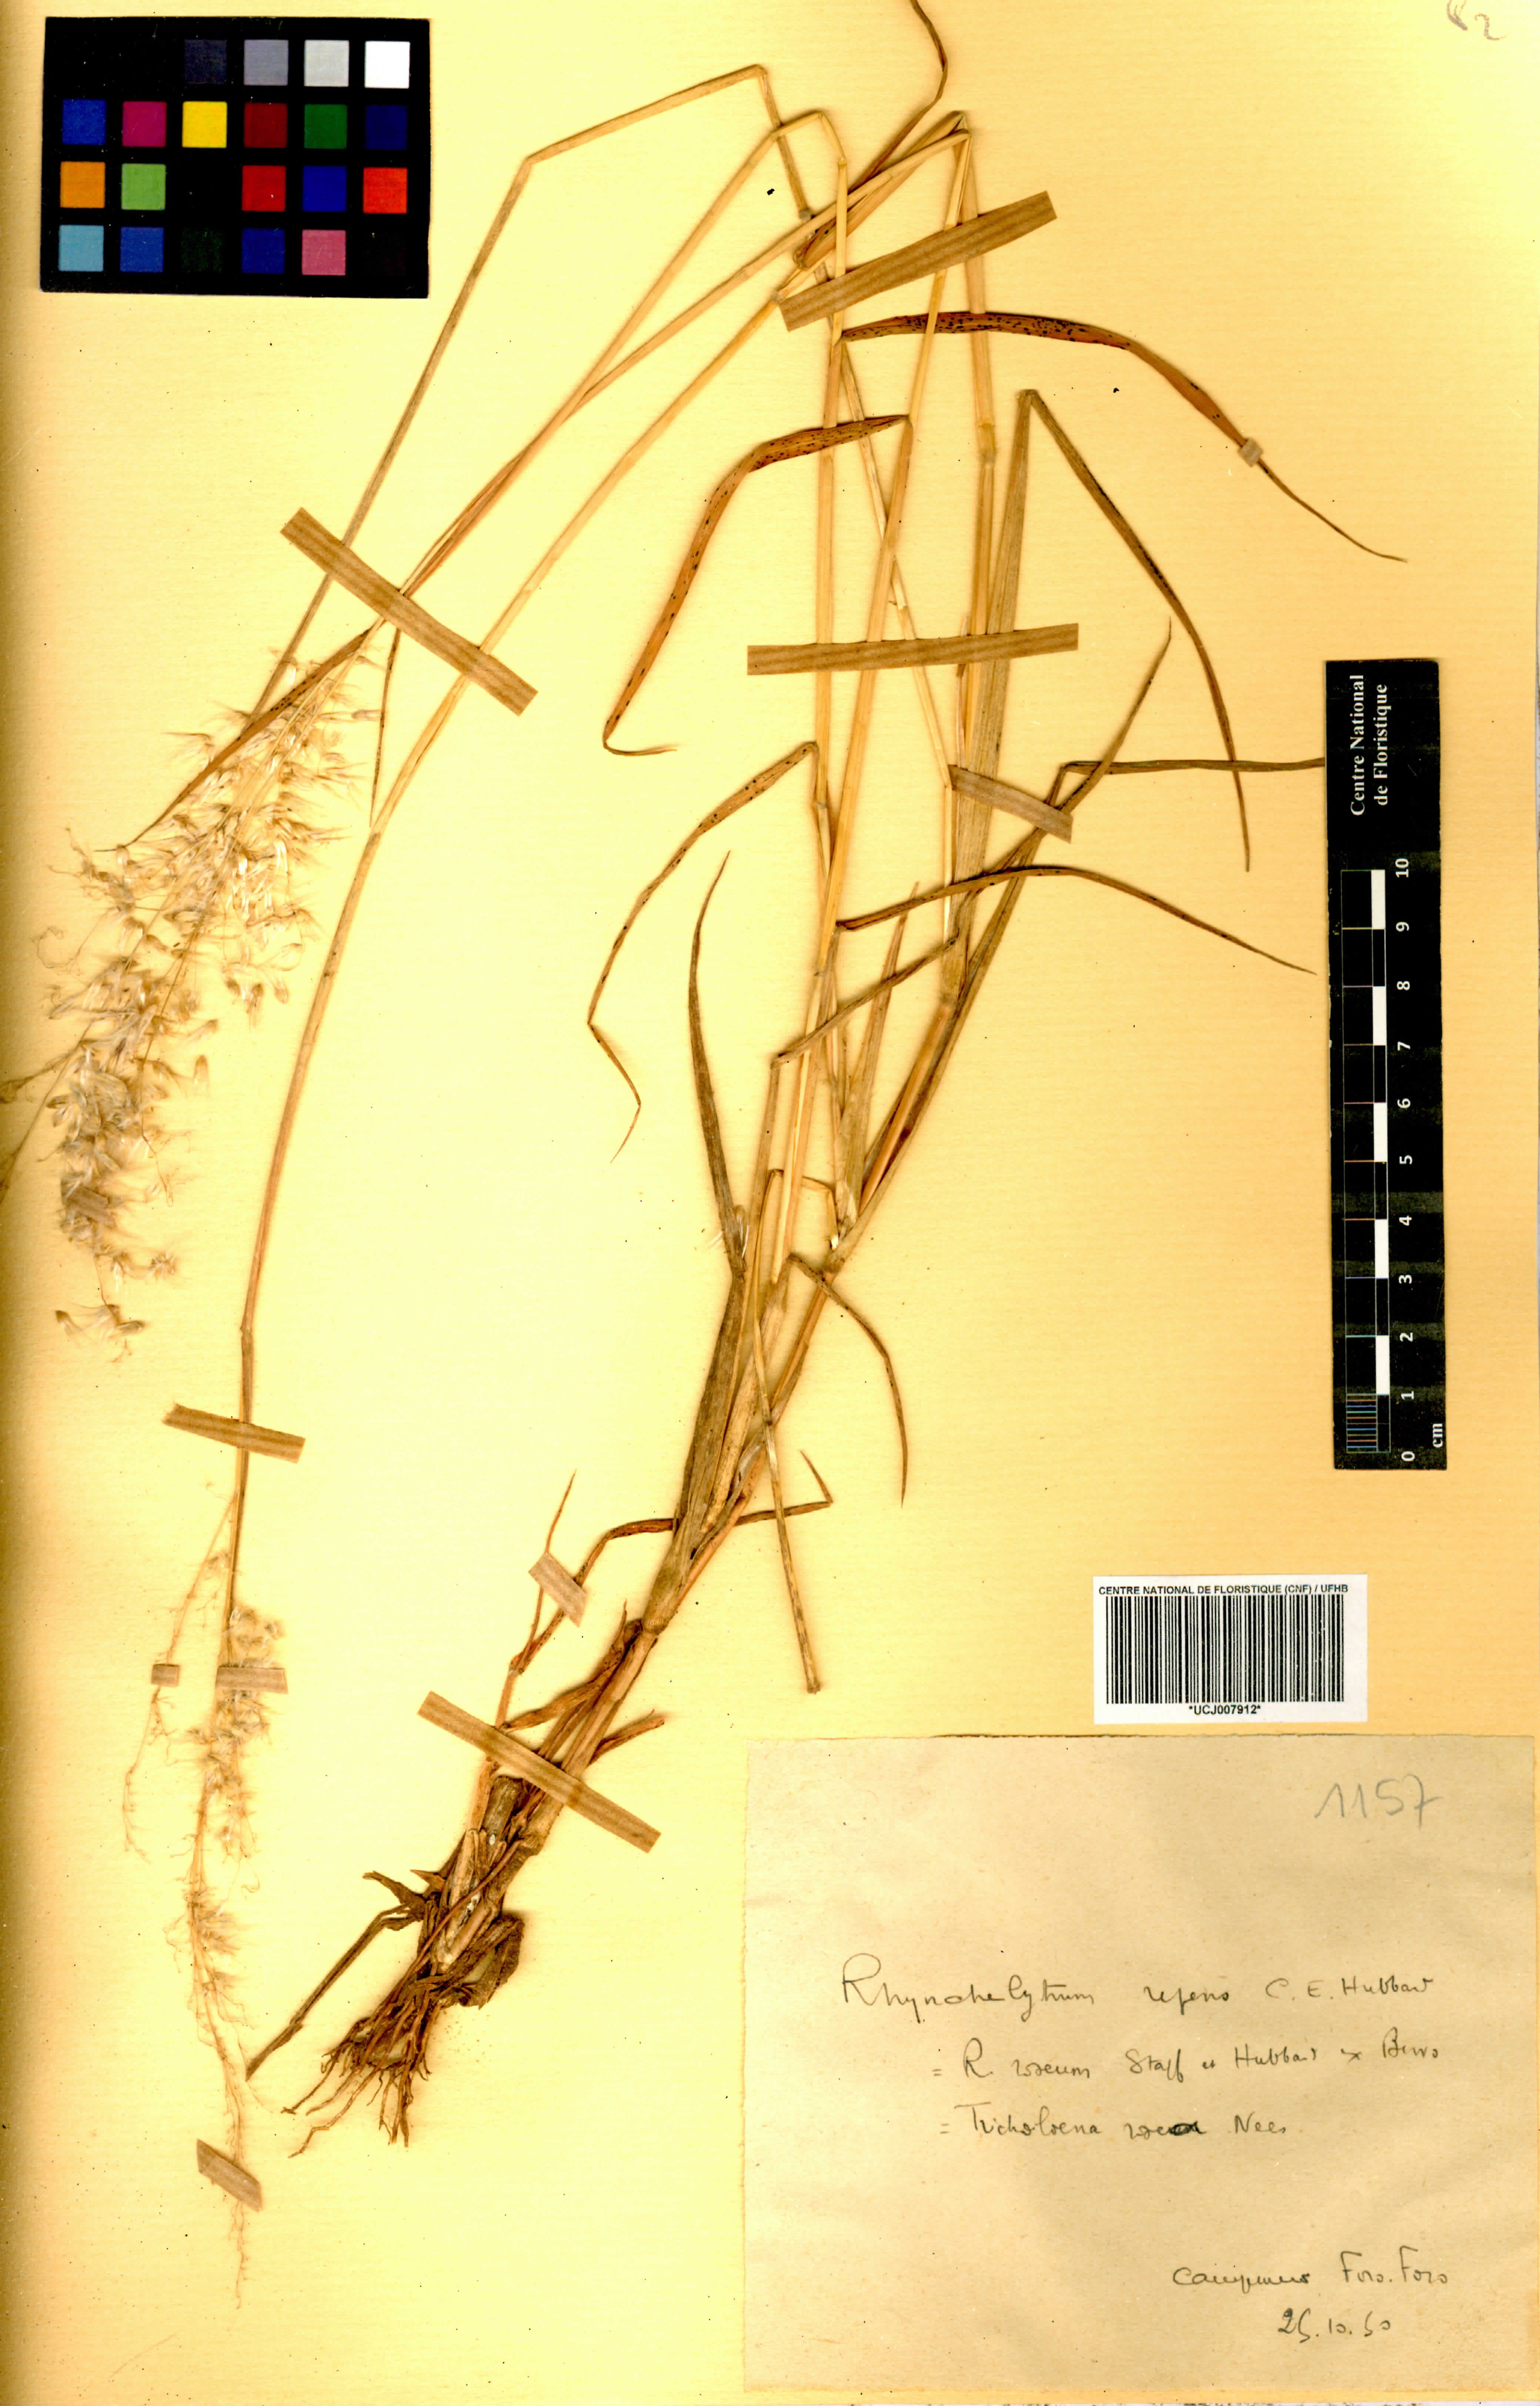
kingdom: Plantae
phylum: Tracheophyta
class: Liliopsida
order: Poales
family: Poaceae
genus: Melinis
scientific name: Melinis repens
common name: Rose natal grass
